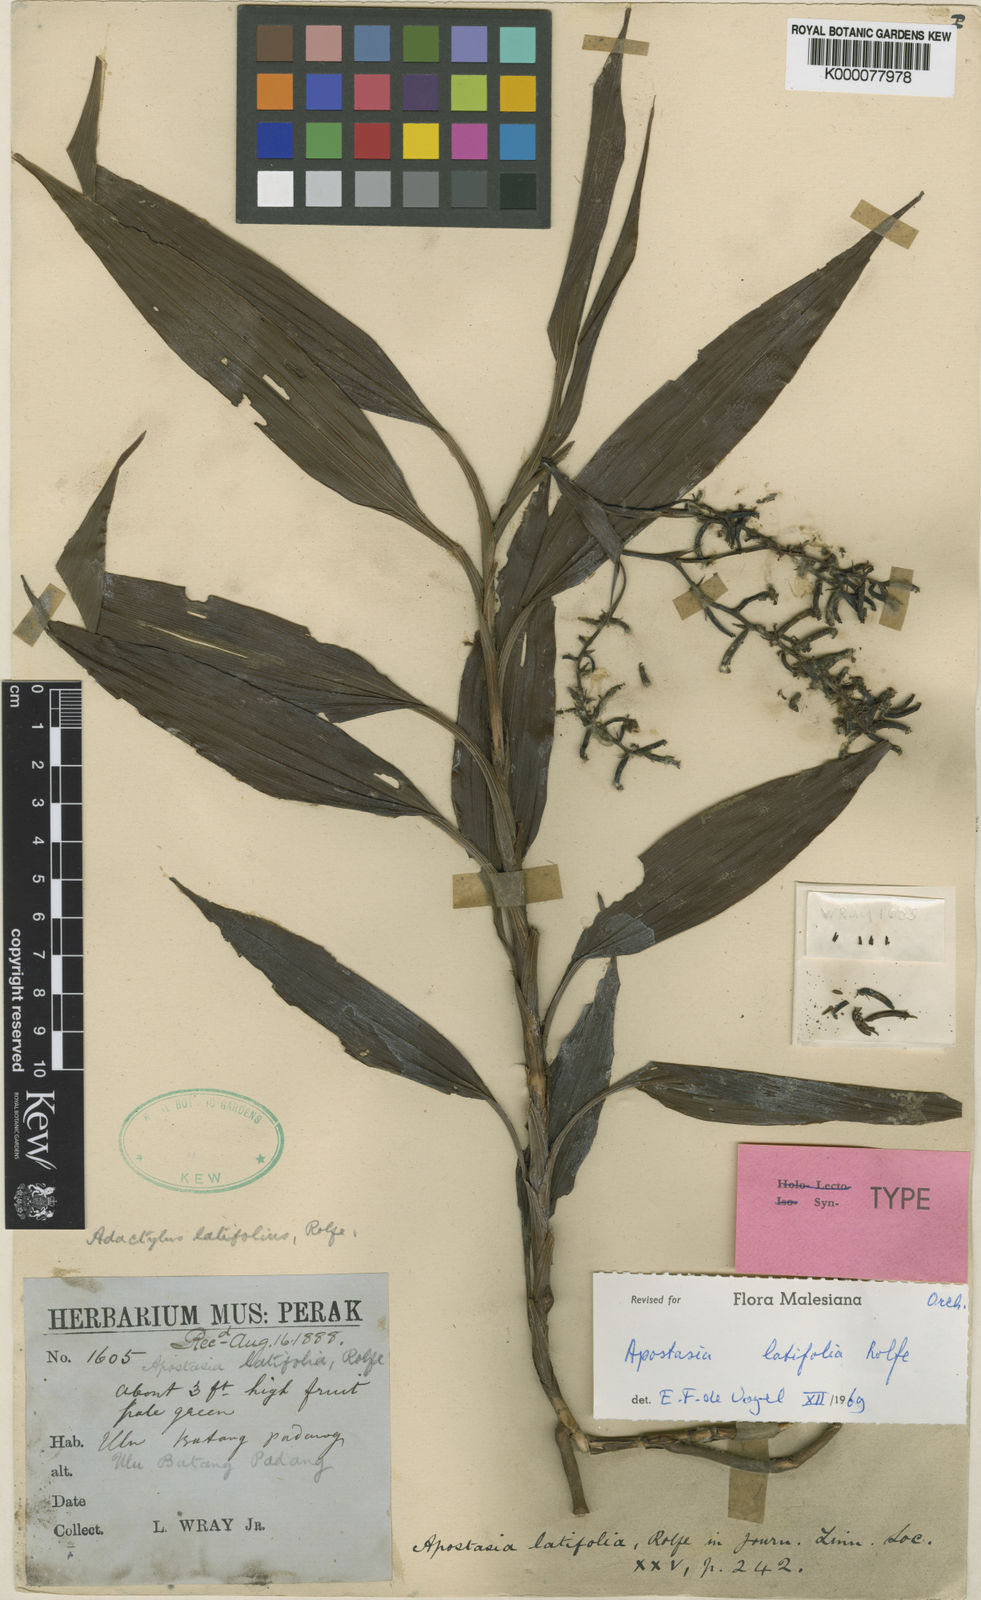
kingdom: Plantae
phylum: Tracheophyta
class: Liliopsida
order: Asparagales
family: Orchidaceae
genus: Apostasia
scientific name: Apostasia latifolia
